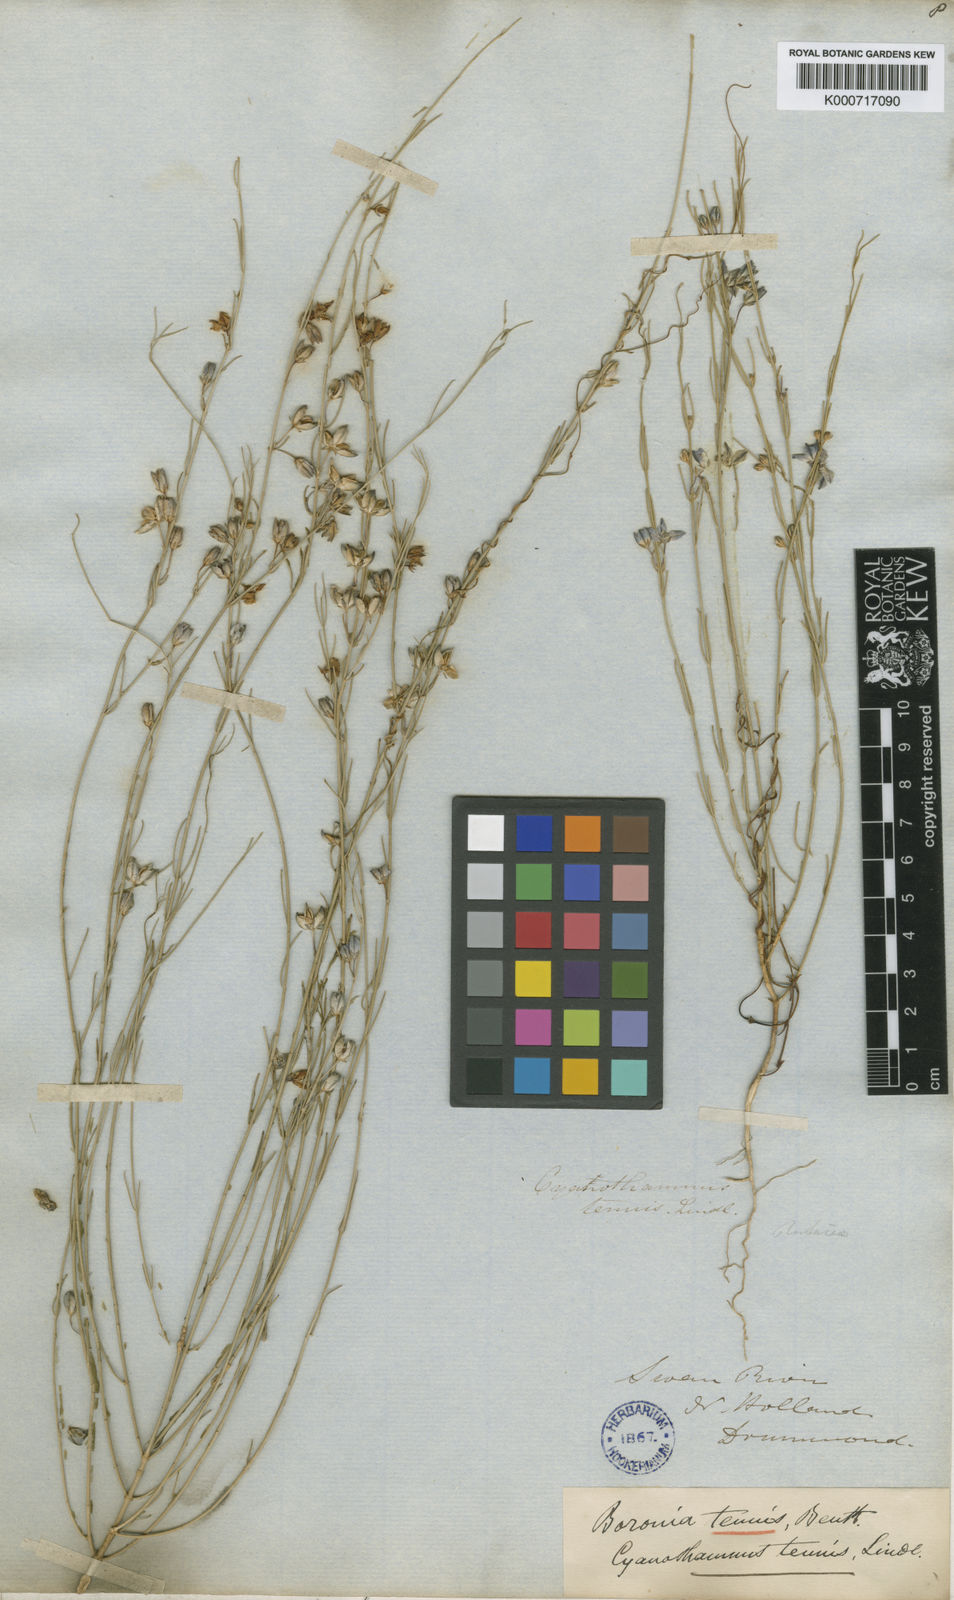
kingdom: Plantae
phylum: Tracheophyta
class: Magnoliopsida
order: Sapindales
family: Rutaceae
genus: Cyanothamnus
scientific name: Cyanothamnus tenuis
